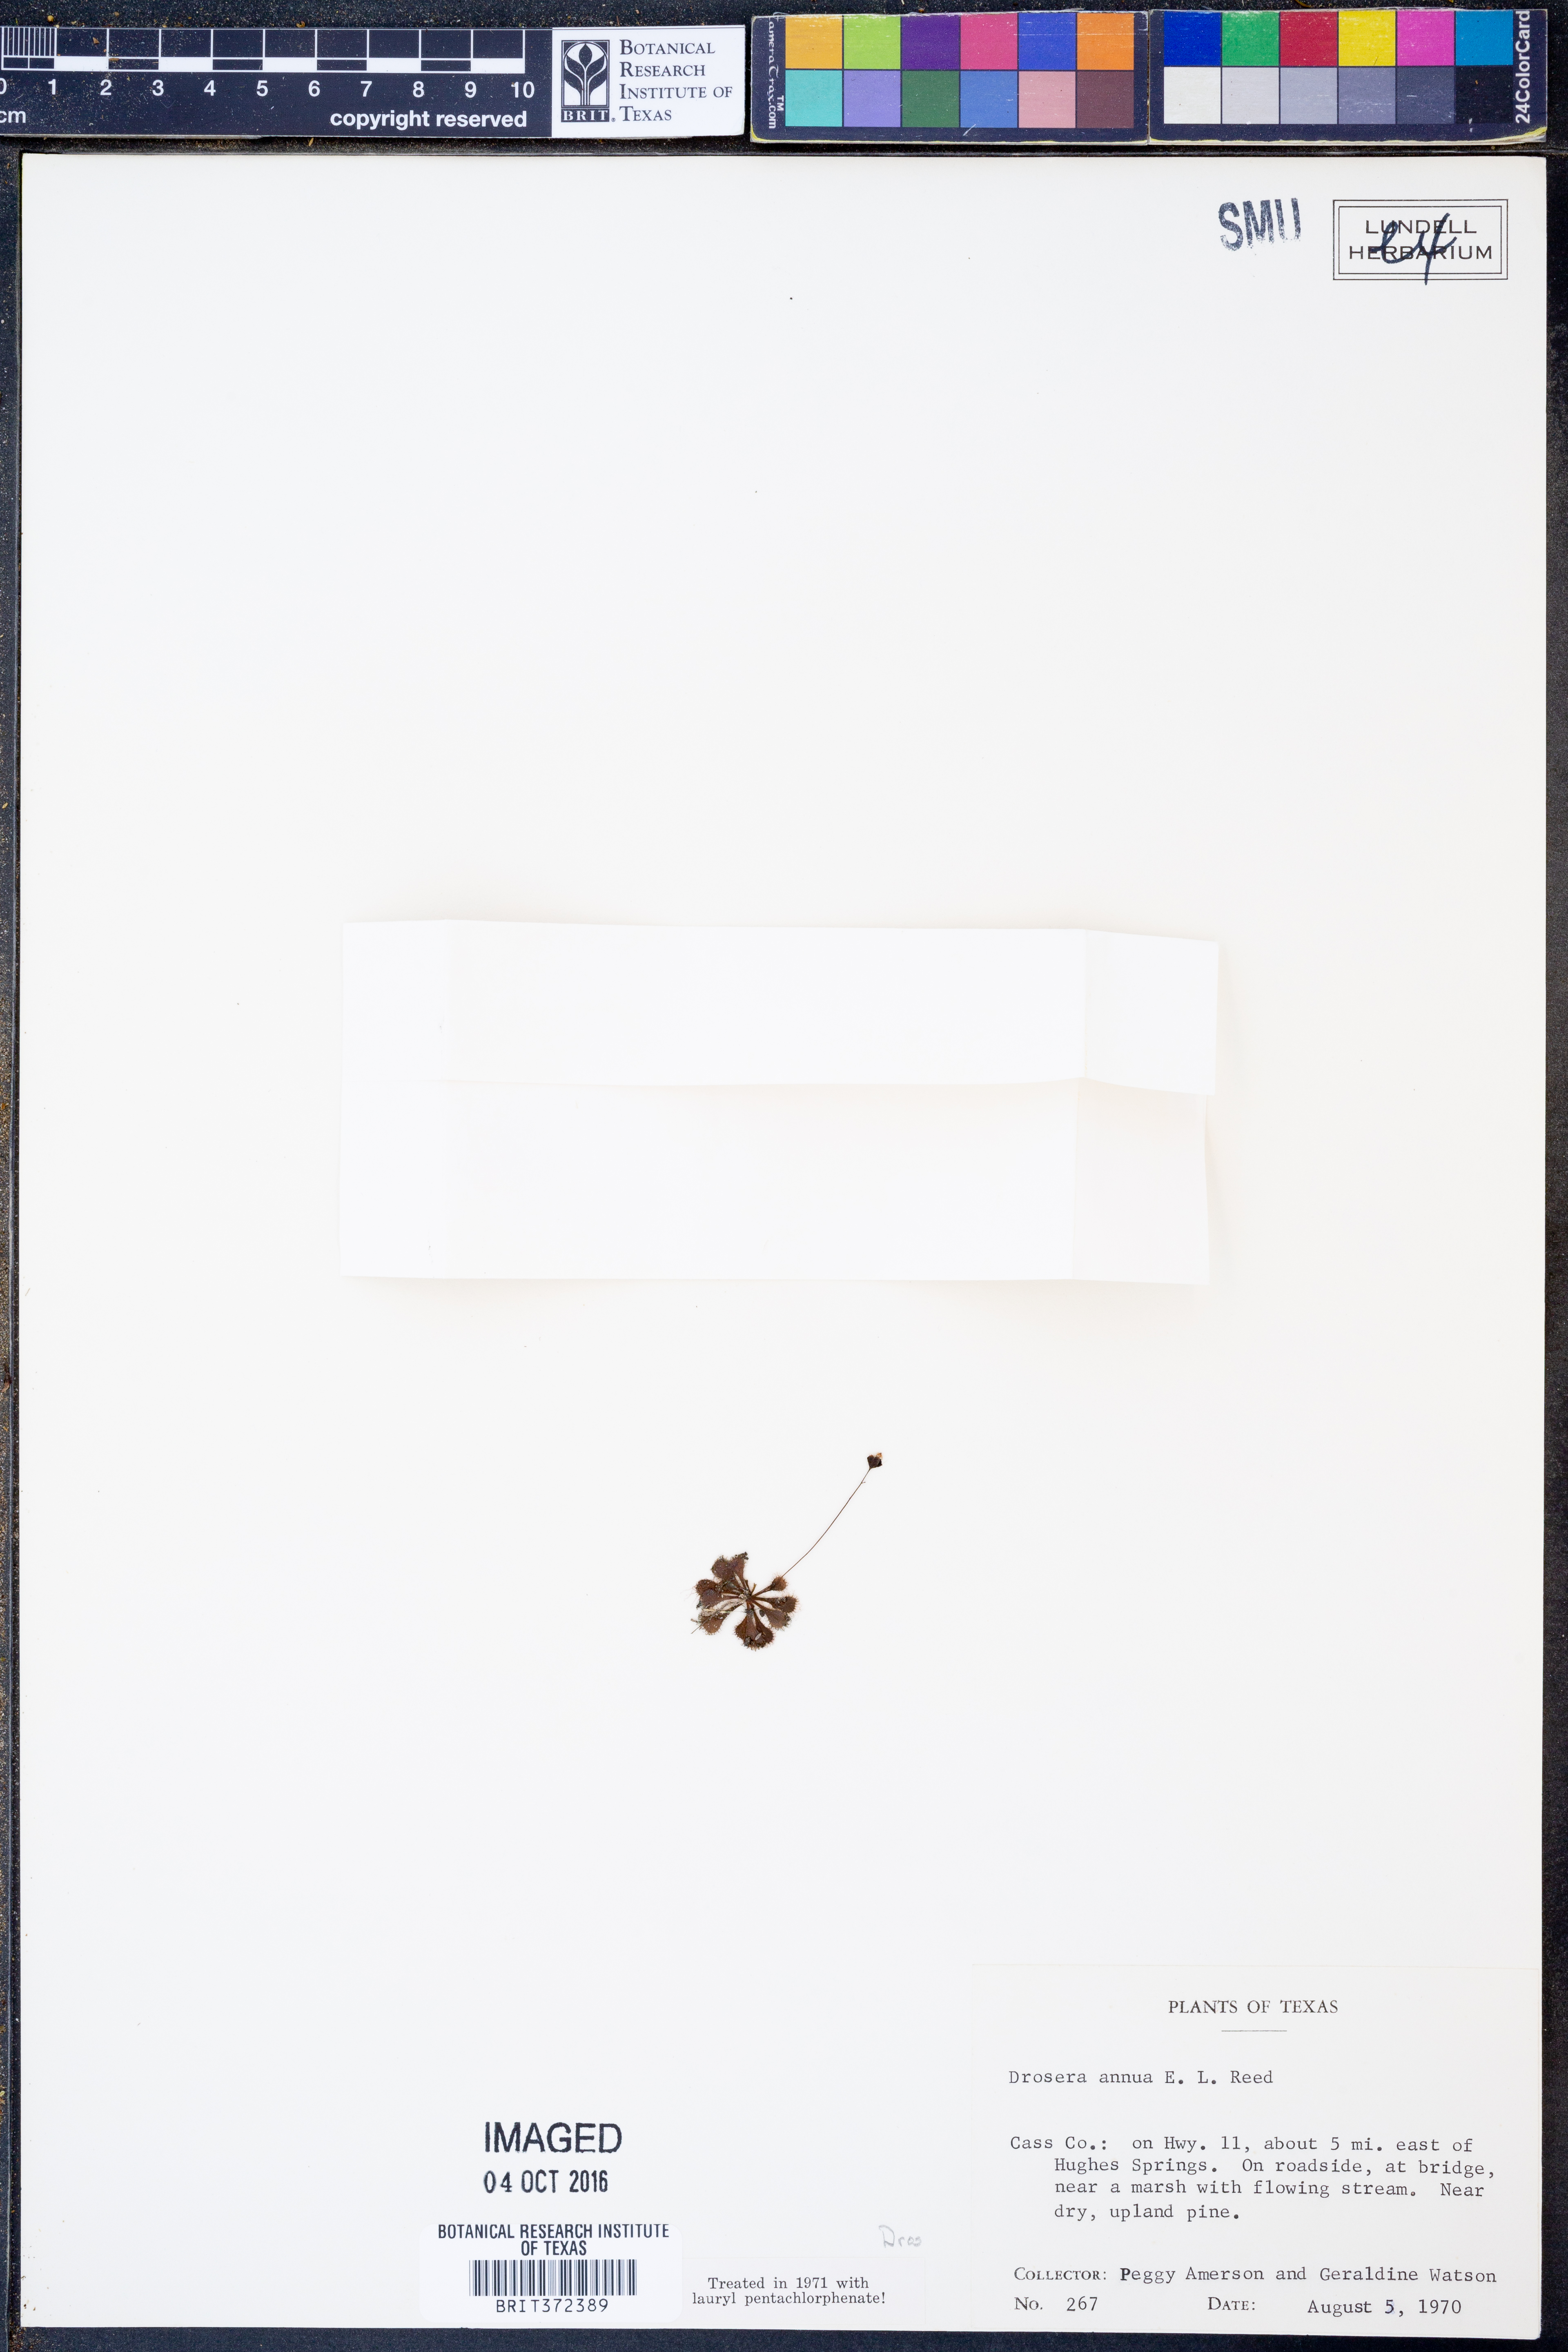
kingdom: Plantae
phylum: Tracheophyta
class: Magnoliopsida
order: Caryophyllales
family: Droseraceae
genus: Drosera
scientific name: Drosera brevifolia
